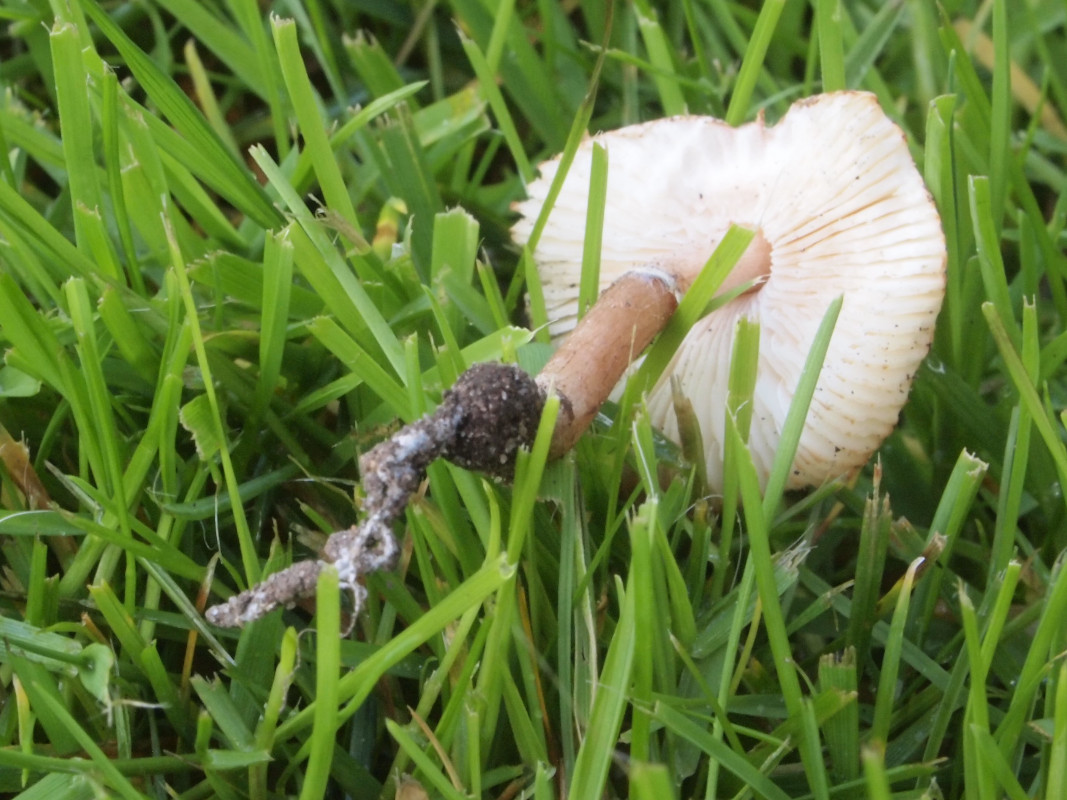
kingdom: Fungi
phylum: Basidiomycota
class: Agaricomycetes
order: Agaricales
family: Agaricaceae
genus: Lepiota
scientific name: Lepiota lilacea
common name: lillabrun parasolhat
